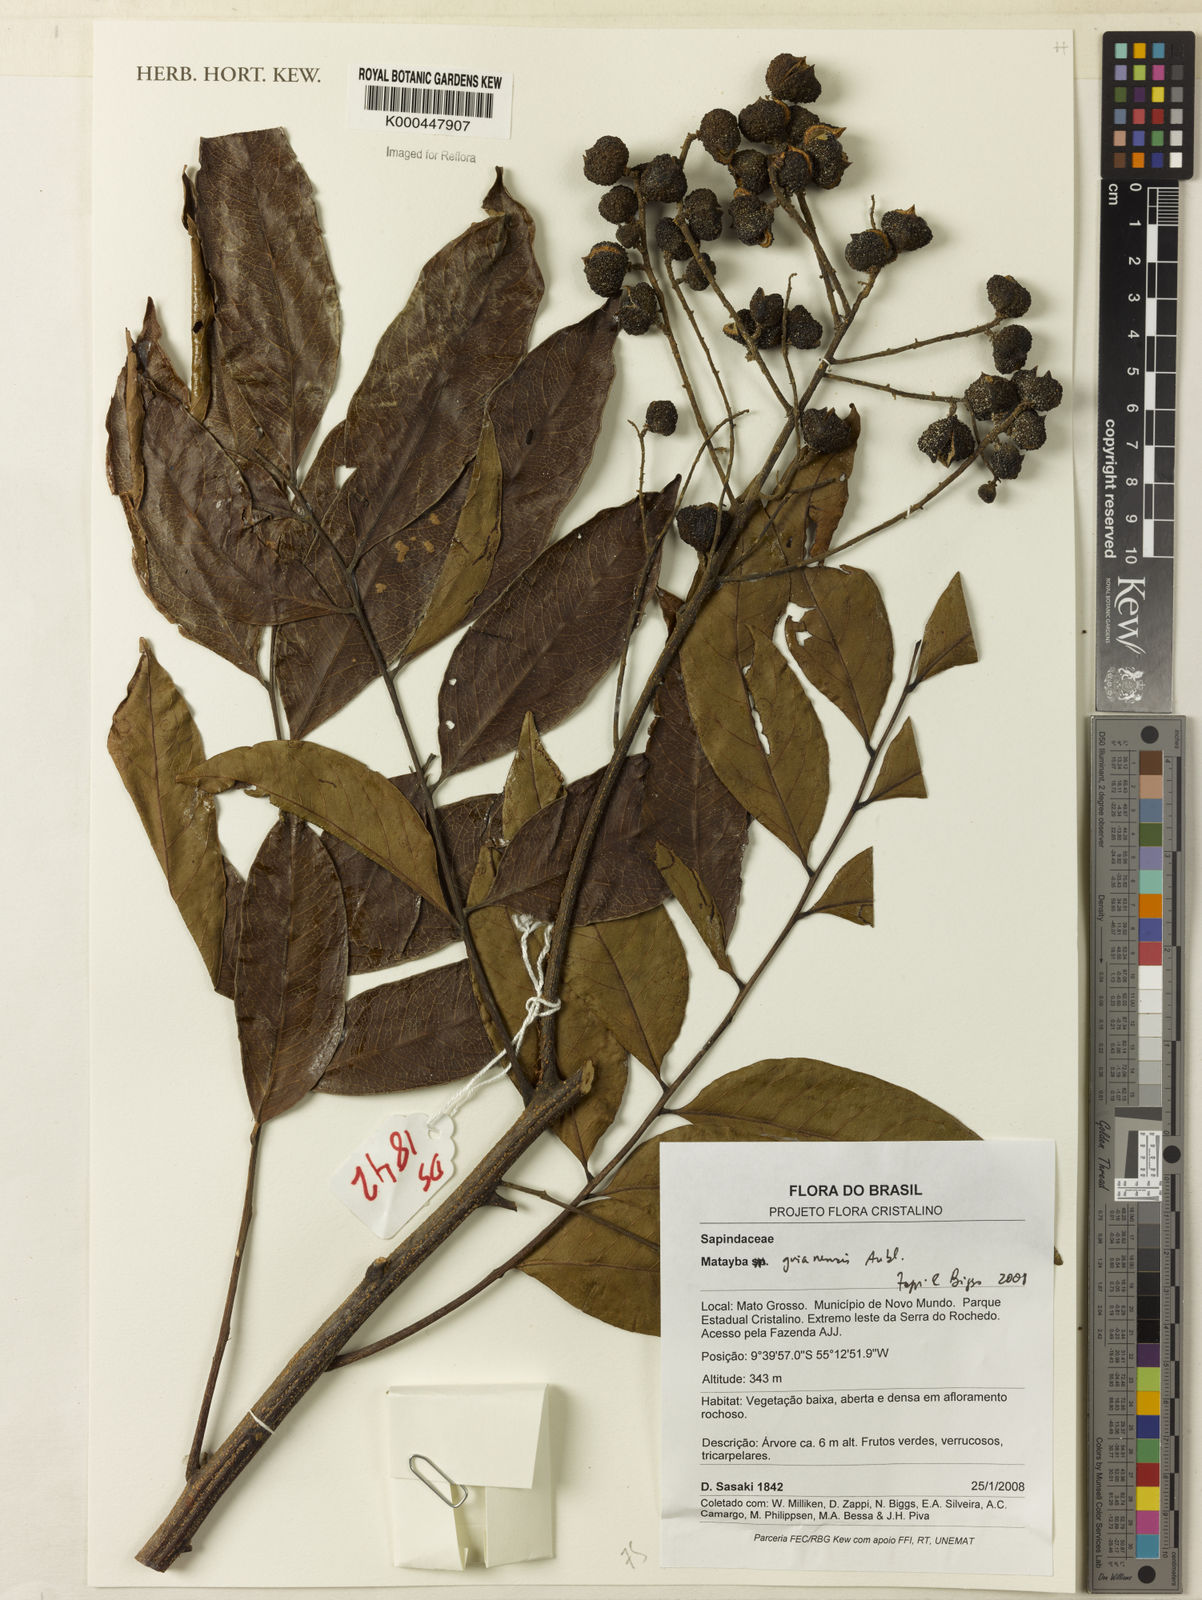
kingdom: Plantae
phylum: Tracheophyta
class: Magnoliopsida
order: Sapindales
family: Sapindaceae
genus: Matayba
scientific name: Matayba guianensis
